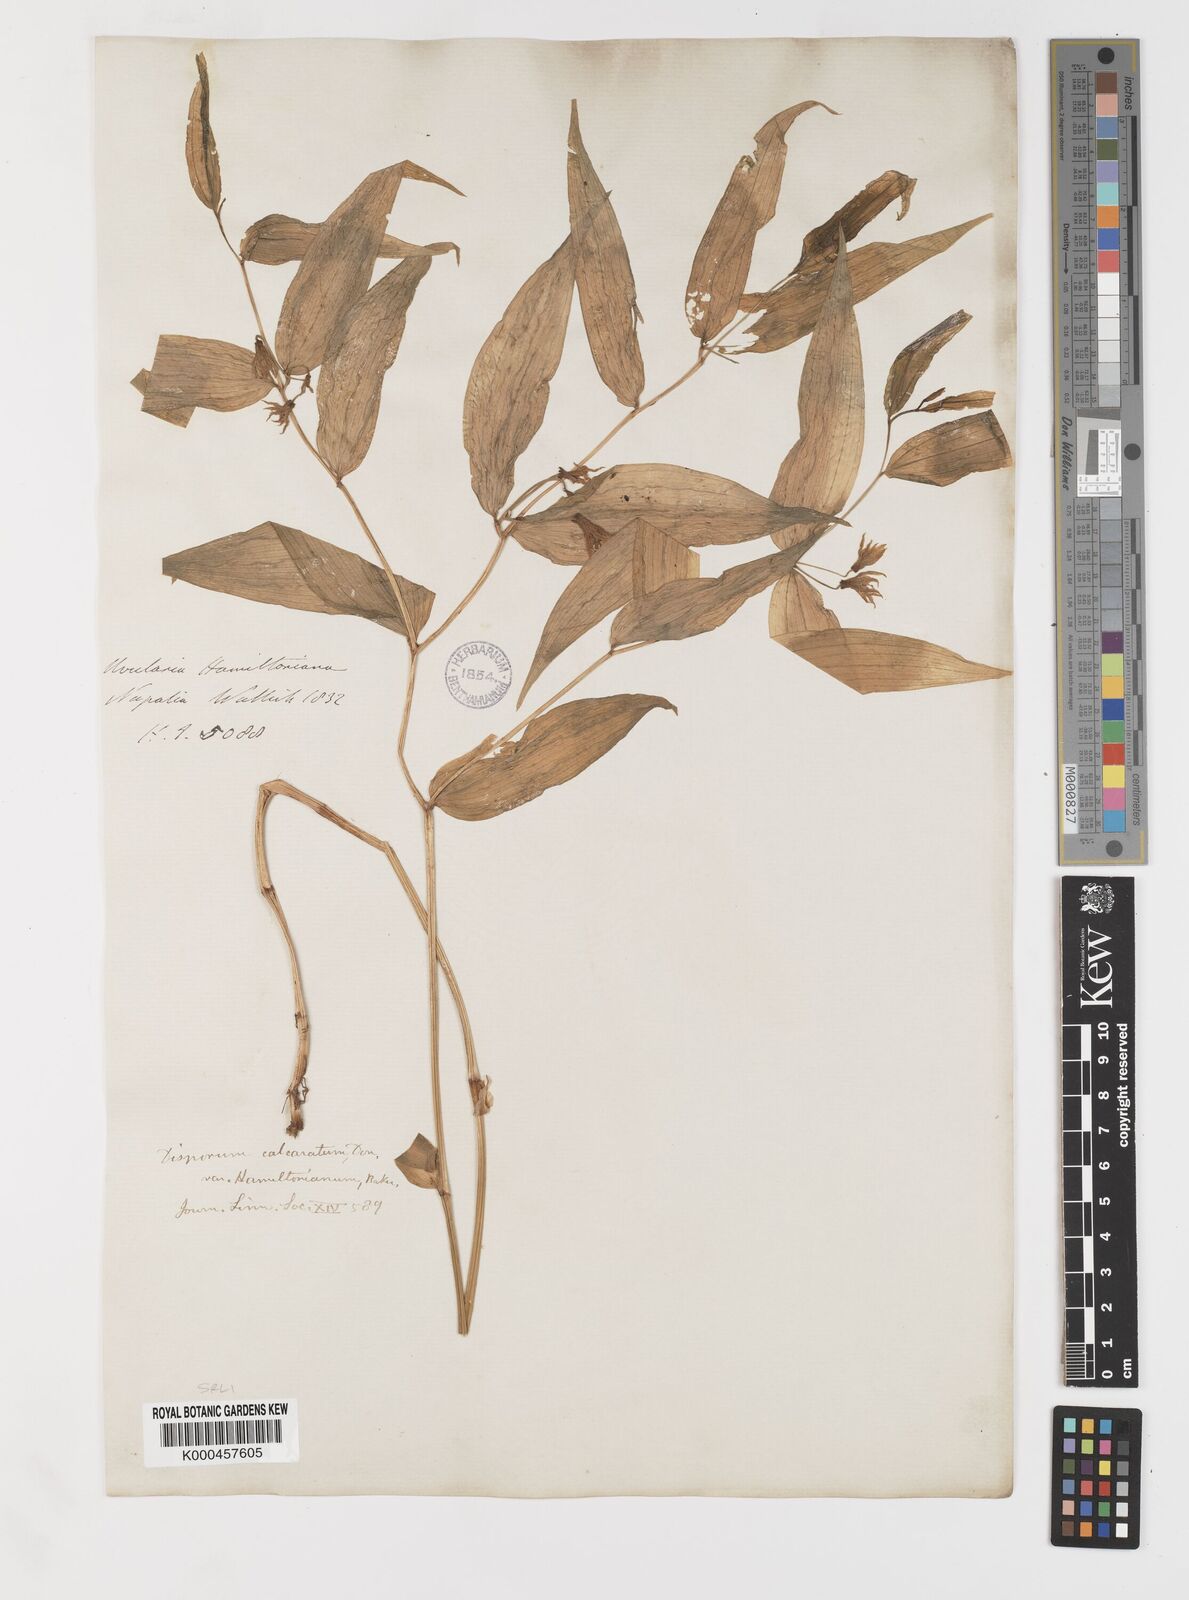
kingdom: Plantae
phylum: Tracheophyta
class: Liliopsida
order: Liliales
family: Colchicaceae
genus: Disporum
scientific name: Disporum calcaratum
